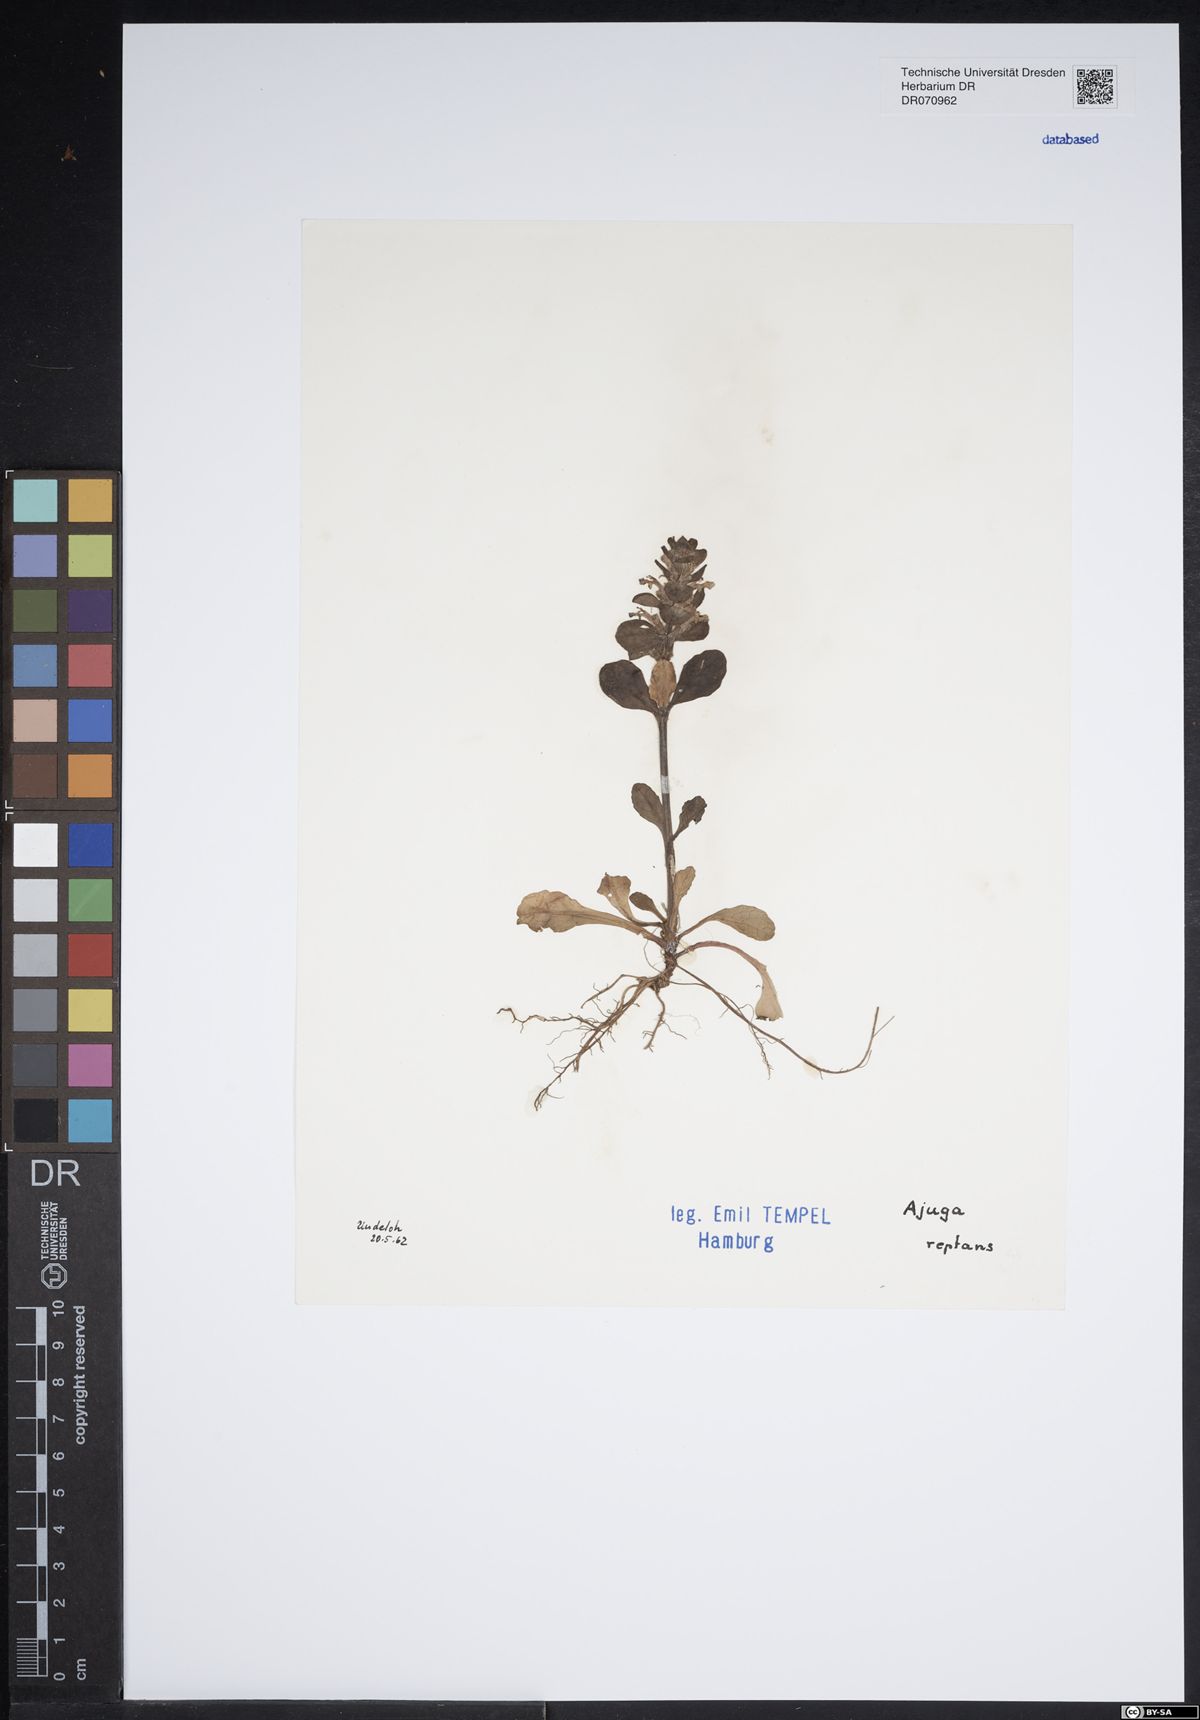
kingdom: Plantae
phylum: Tracheophyta
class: Magnoliopsida
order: Lamiales
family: Lamiaceae
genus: Ajuga
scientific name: Ajuga reptans
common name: Bugle
